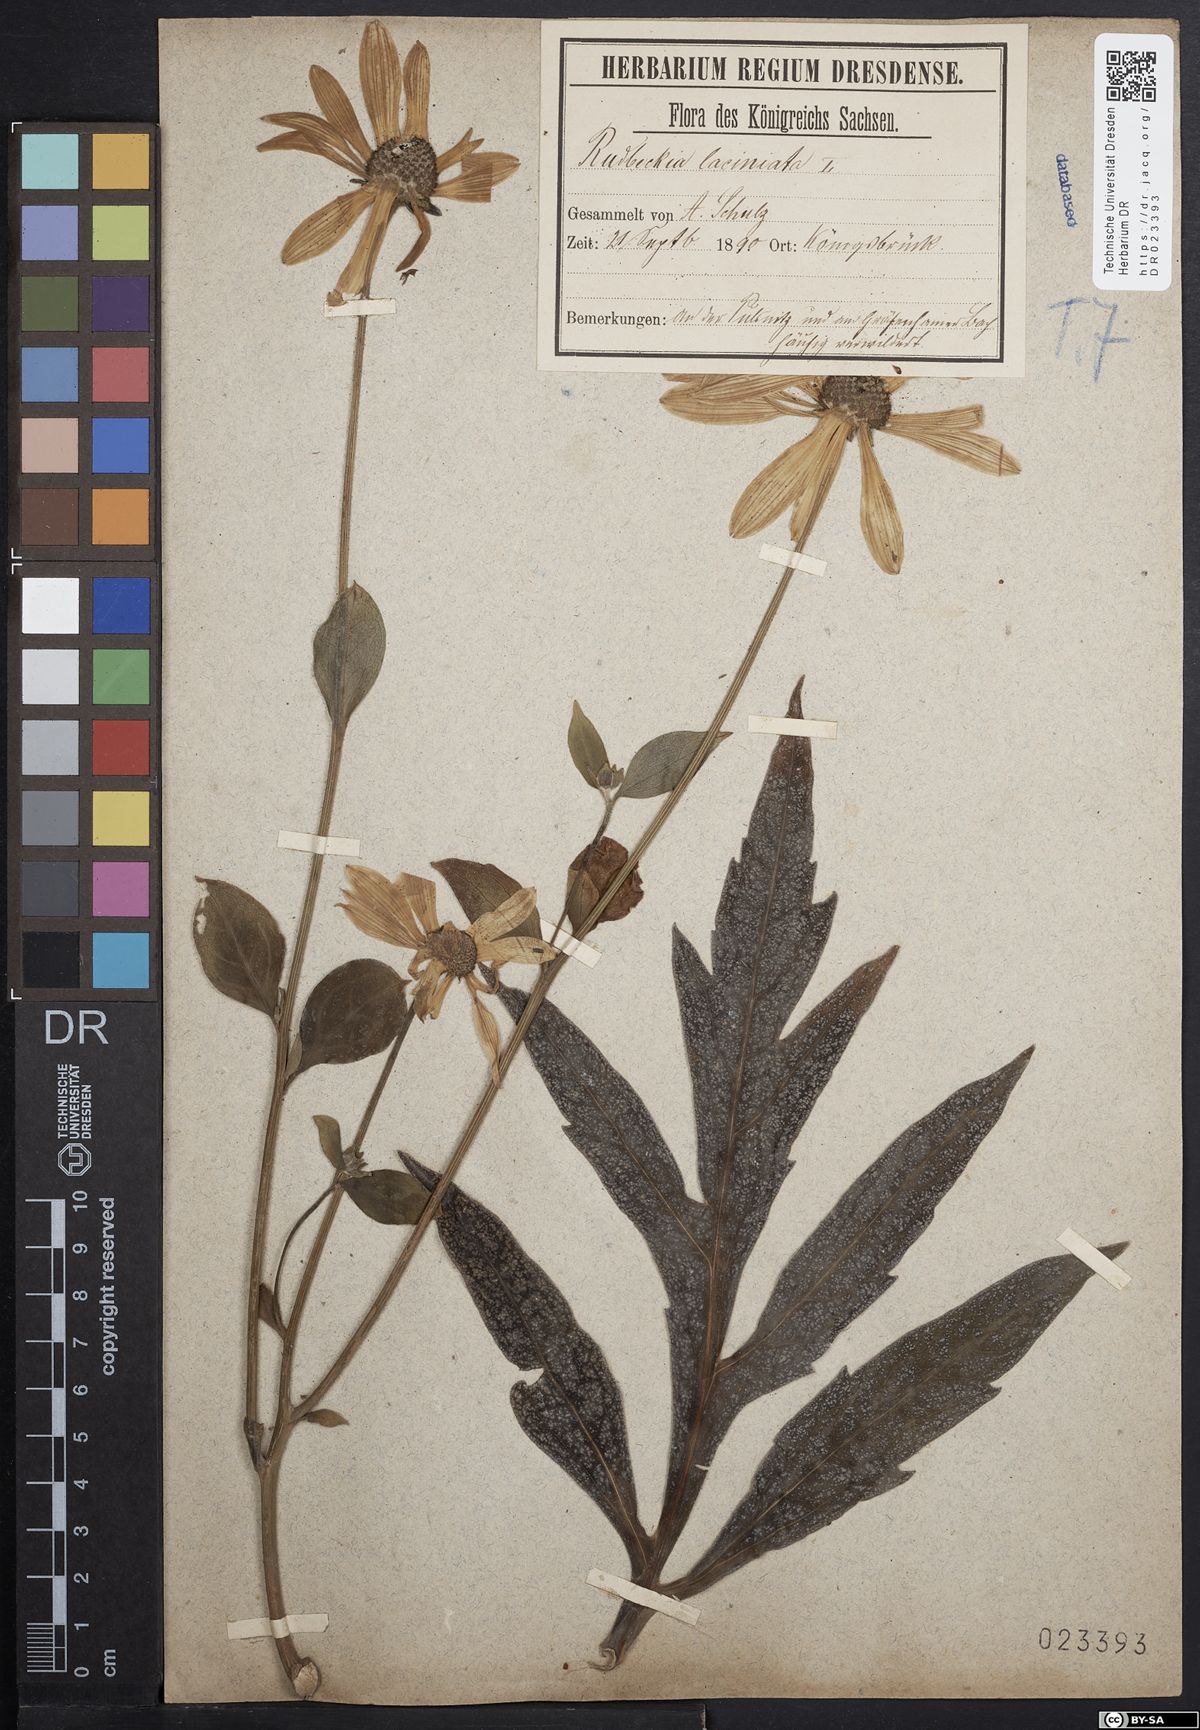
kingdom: Plantae
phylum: Tracheophyta
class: Magnoliopsida
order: Asterales
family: Asteraceae
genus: Rudbeckia
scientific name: Rudbeckia laciniata
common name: Coneflower
